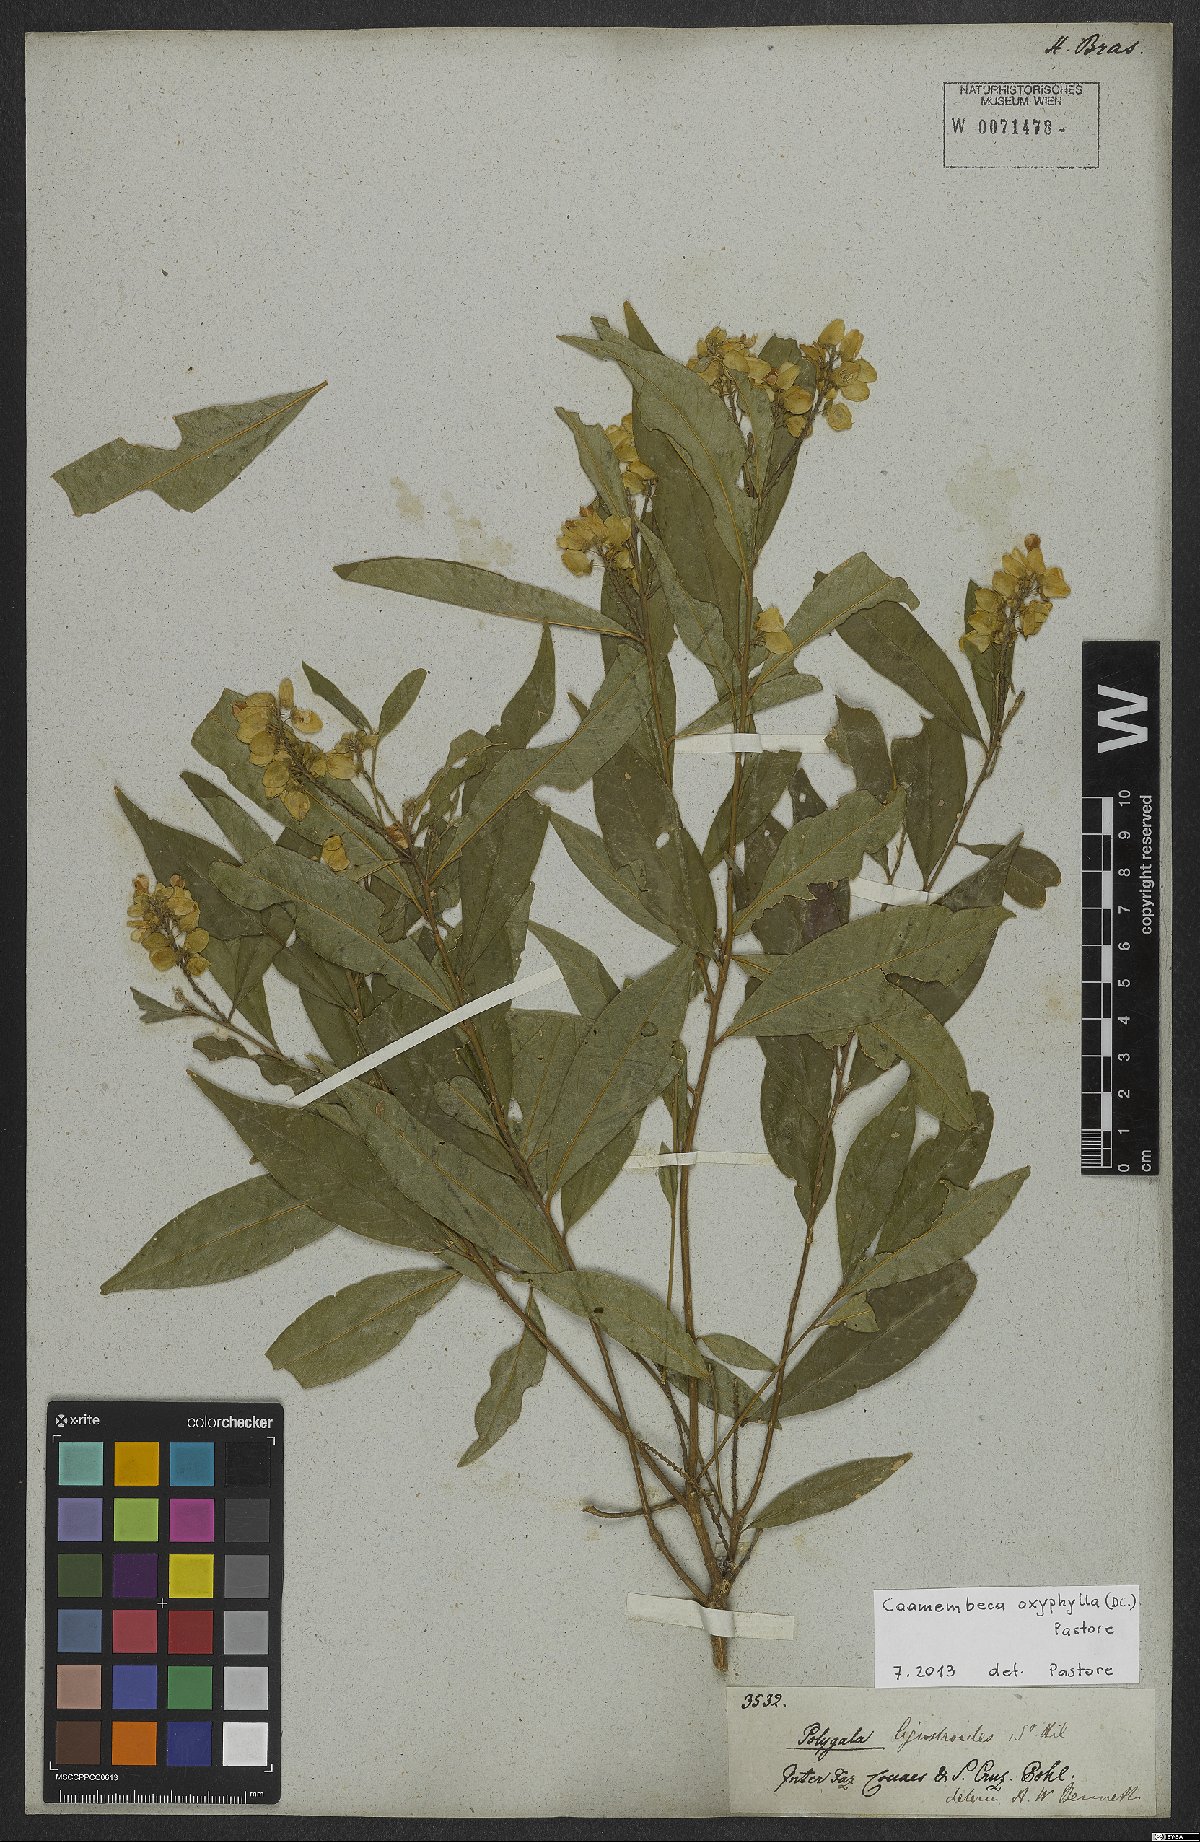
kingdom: Plantae
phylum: Tracheophyta
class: Magnoliopsida
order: Fabales
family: Polygalaceae
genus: Caamembeca
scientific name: Caamembeca oxyphylla
